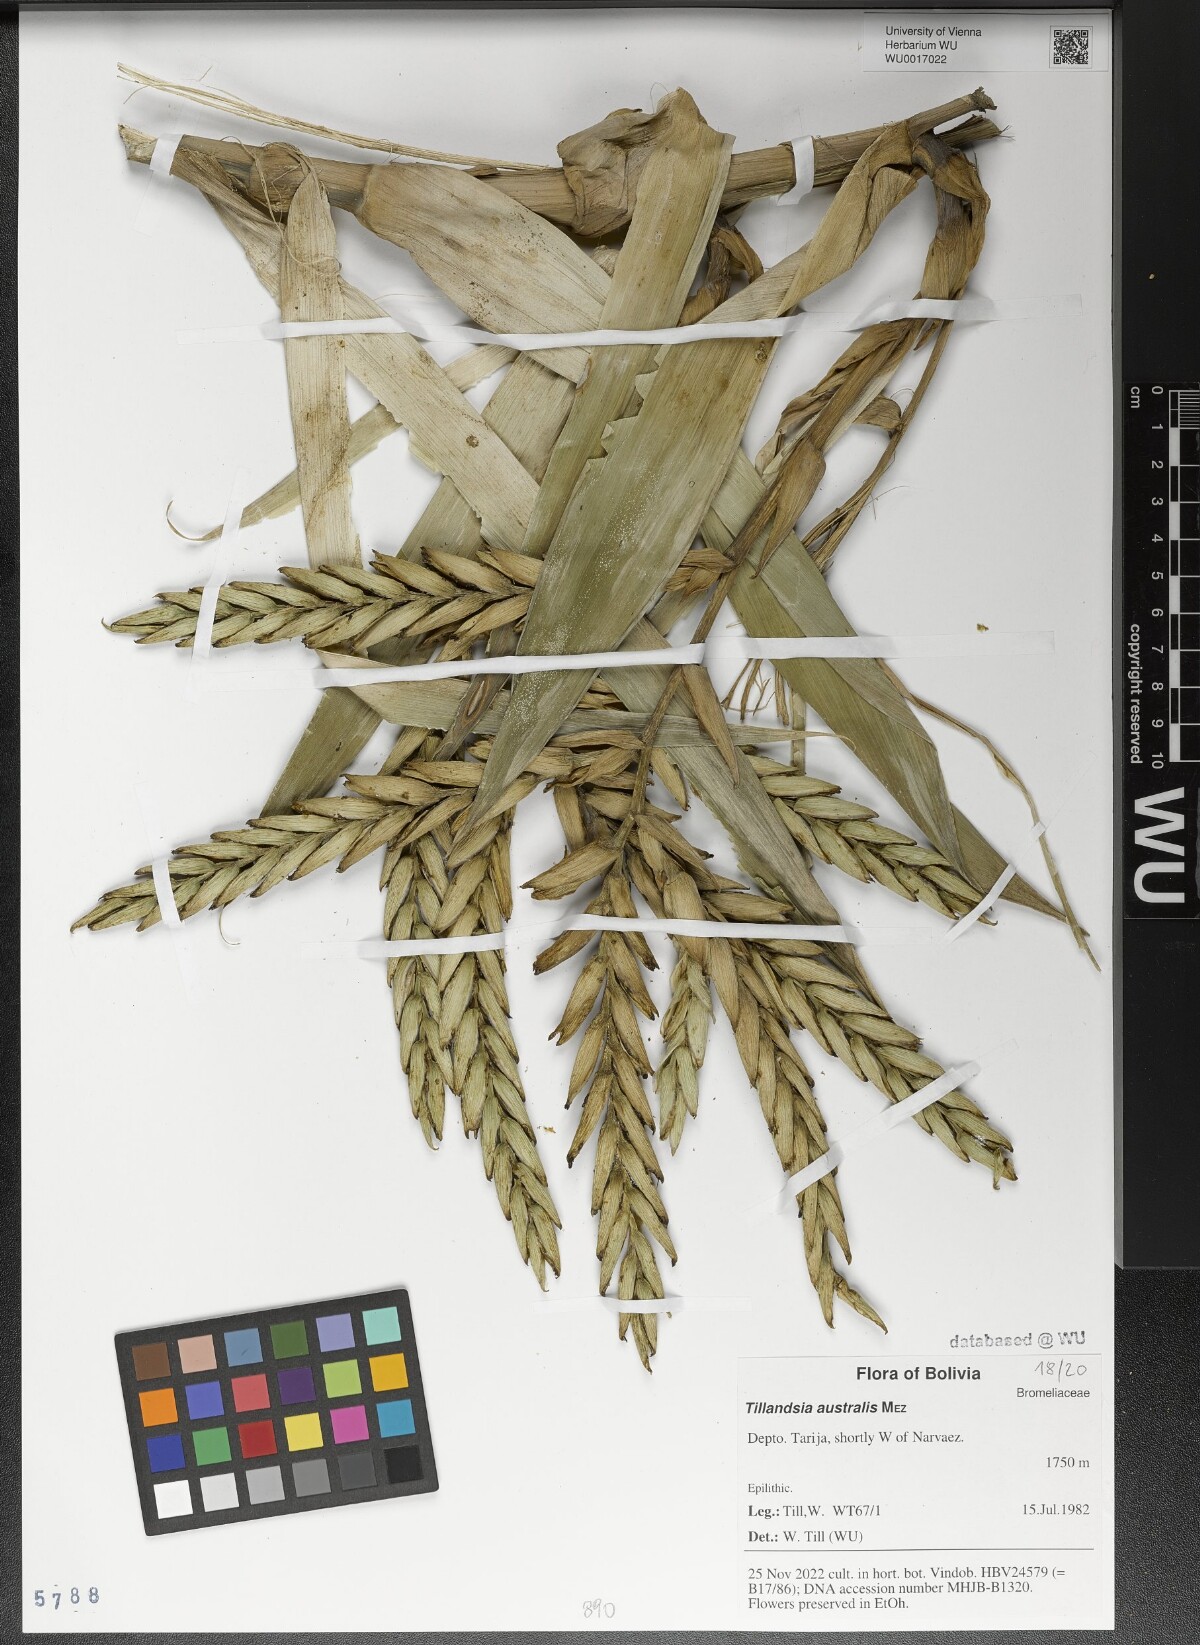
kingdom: Plantae
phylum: Tracheophyta
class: Liliopsida
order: Poales
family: Bromeliaceae
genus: Tillandsia
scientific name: Tillandsia australis
